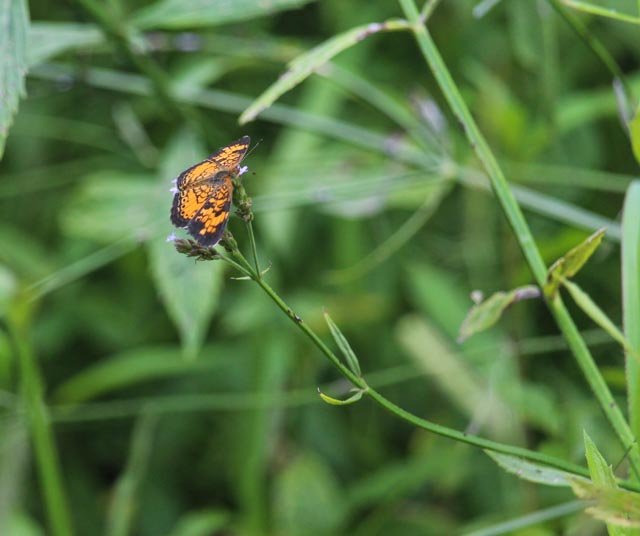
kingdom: Animalia
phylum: Arthropoda
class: Insecta
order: Lepidoptera
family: Nymphalidae
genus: Phyciodes
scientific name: Phyciodes tharos
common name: Pearl Crescent
